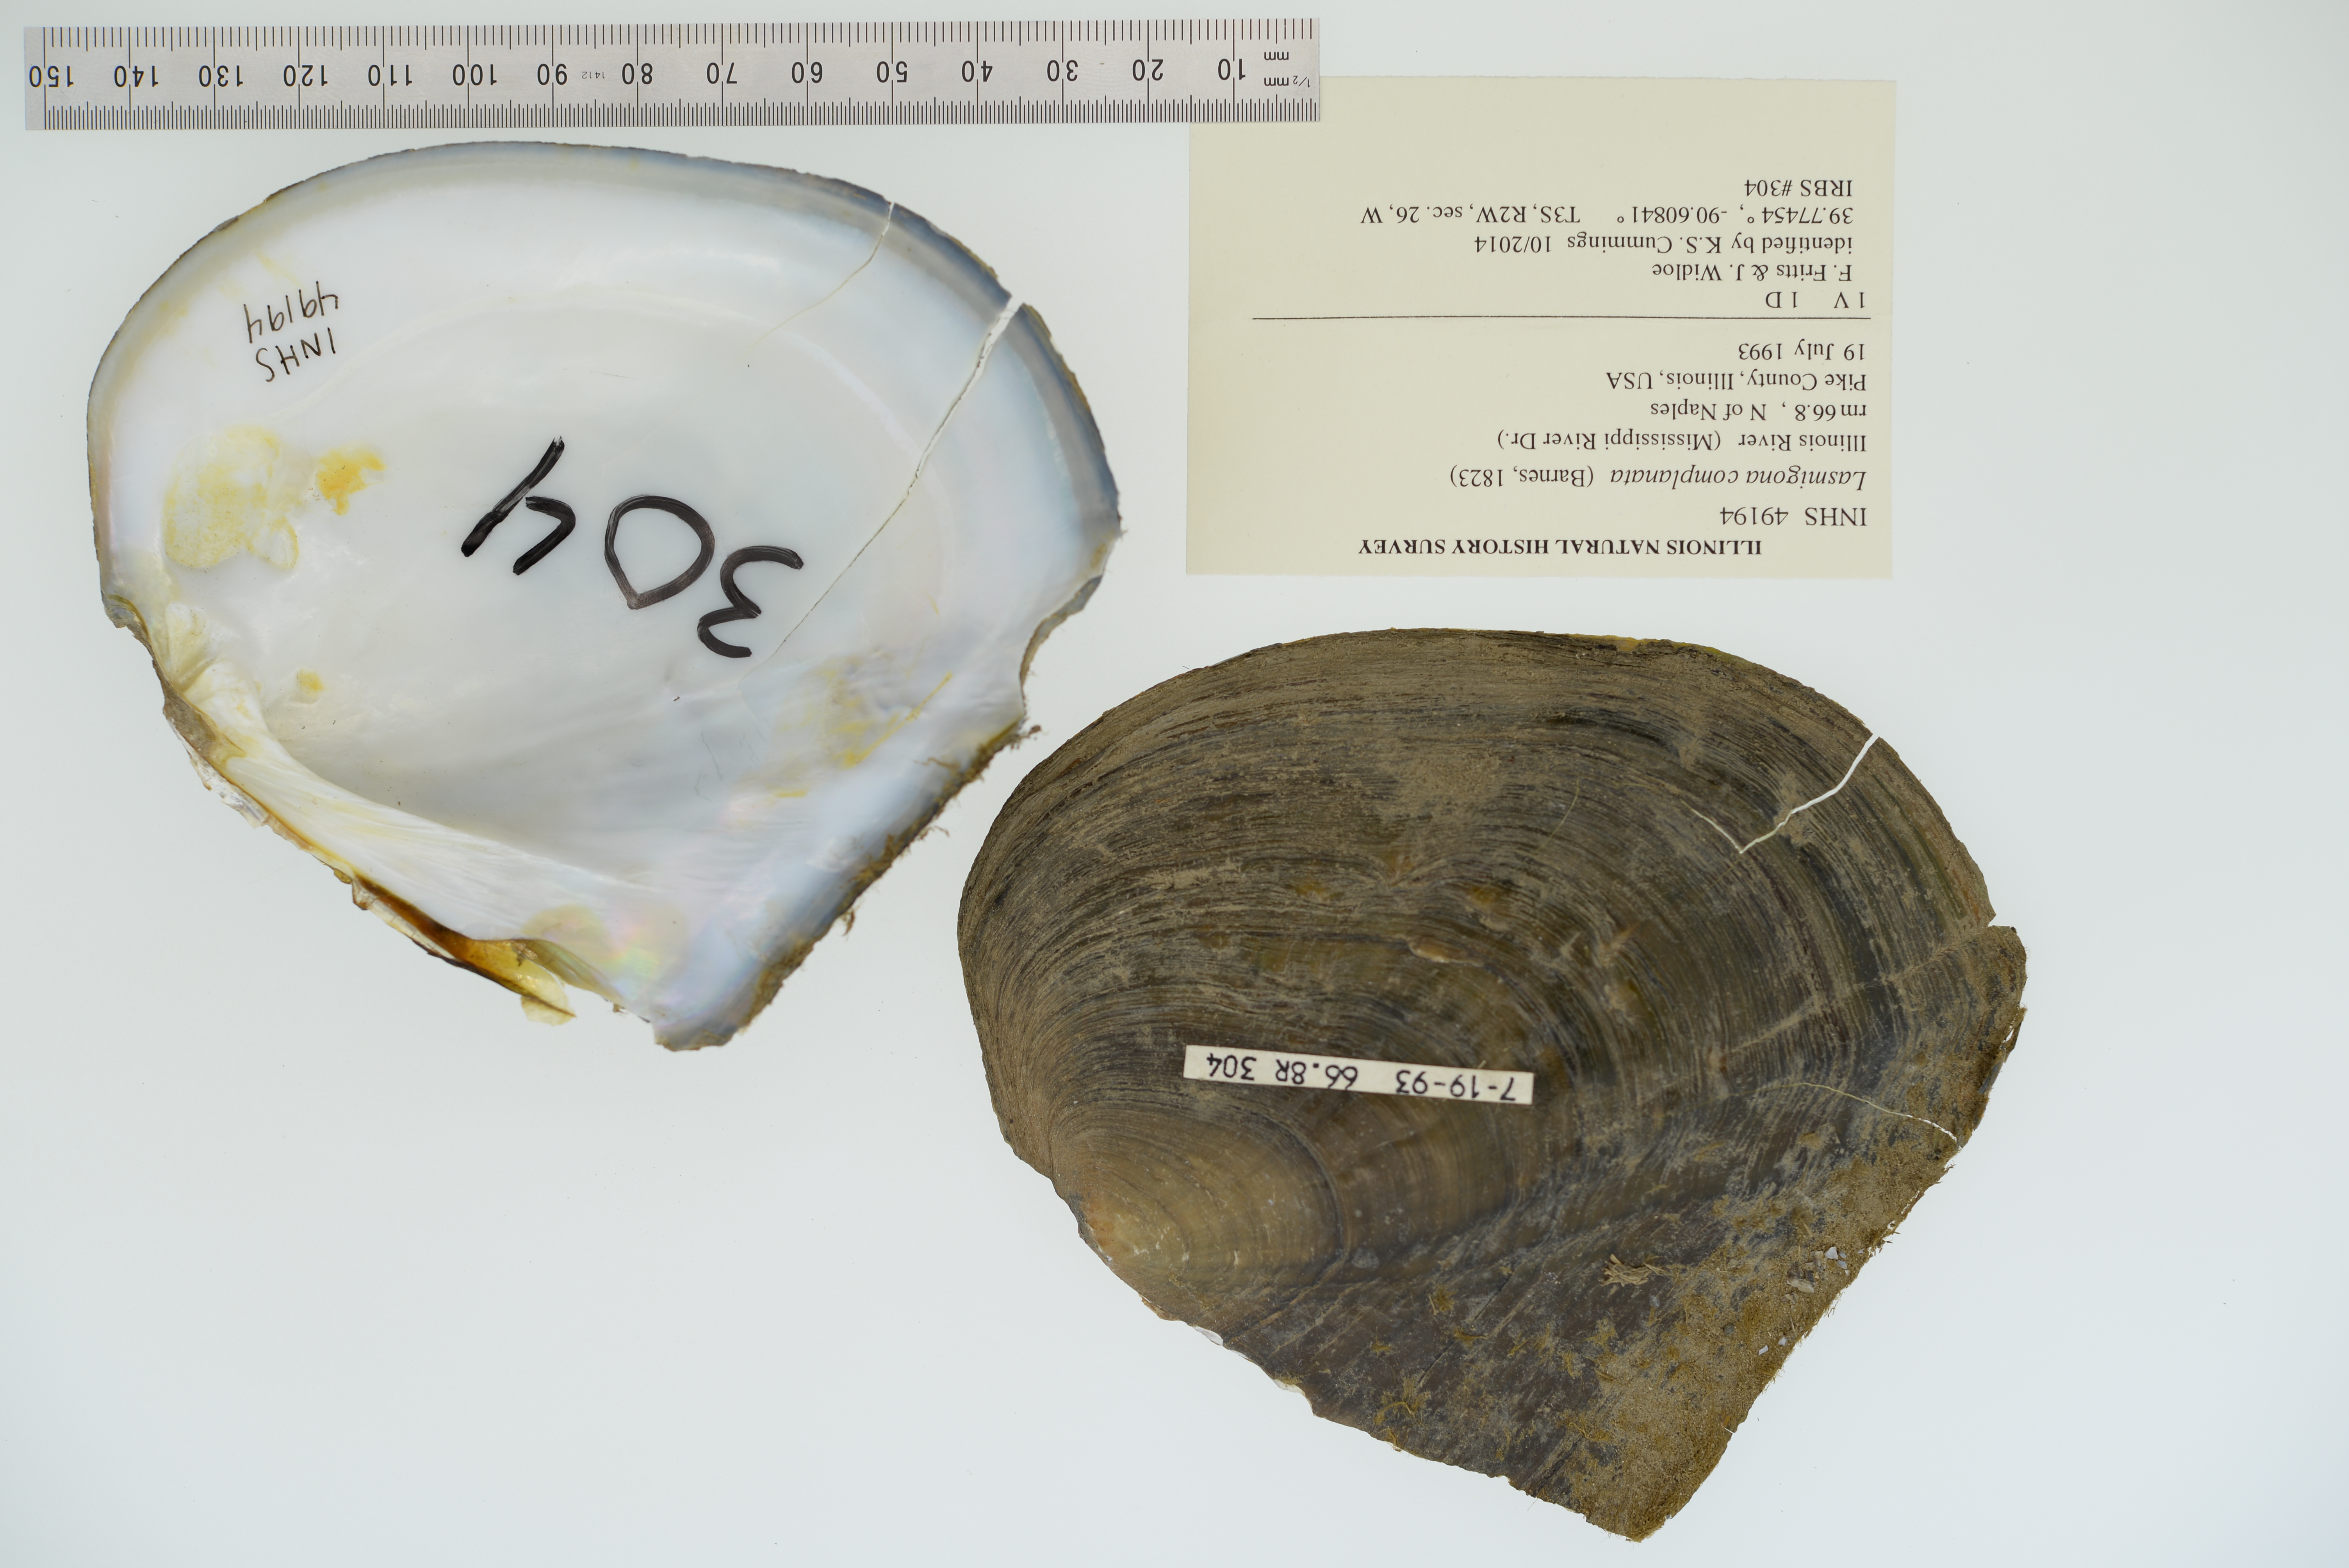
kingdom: Animalia
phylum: Mollusca
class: Bivalvia
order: Unionida
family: Unionidae
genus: Lasmigona
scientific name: Lasmigona complanata
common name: White heelsplitter
